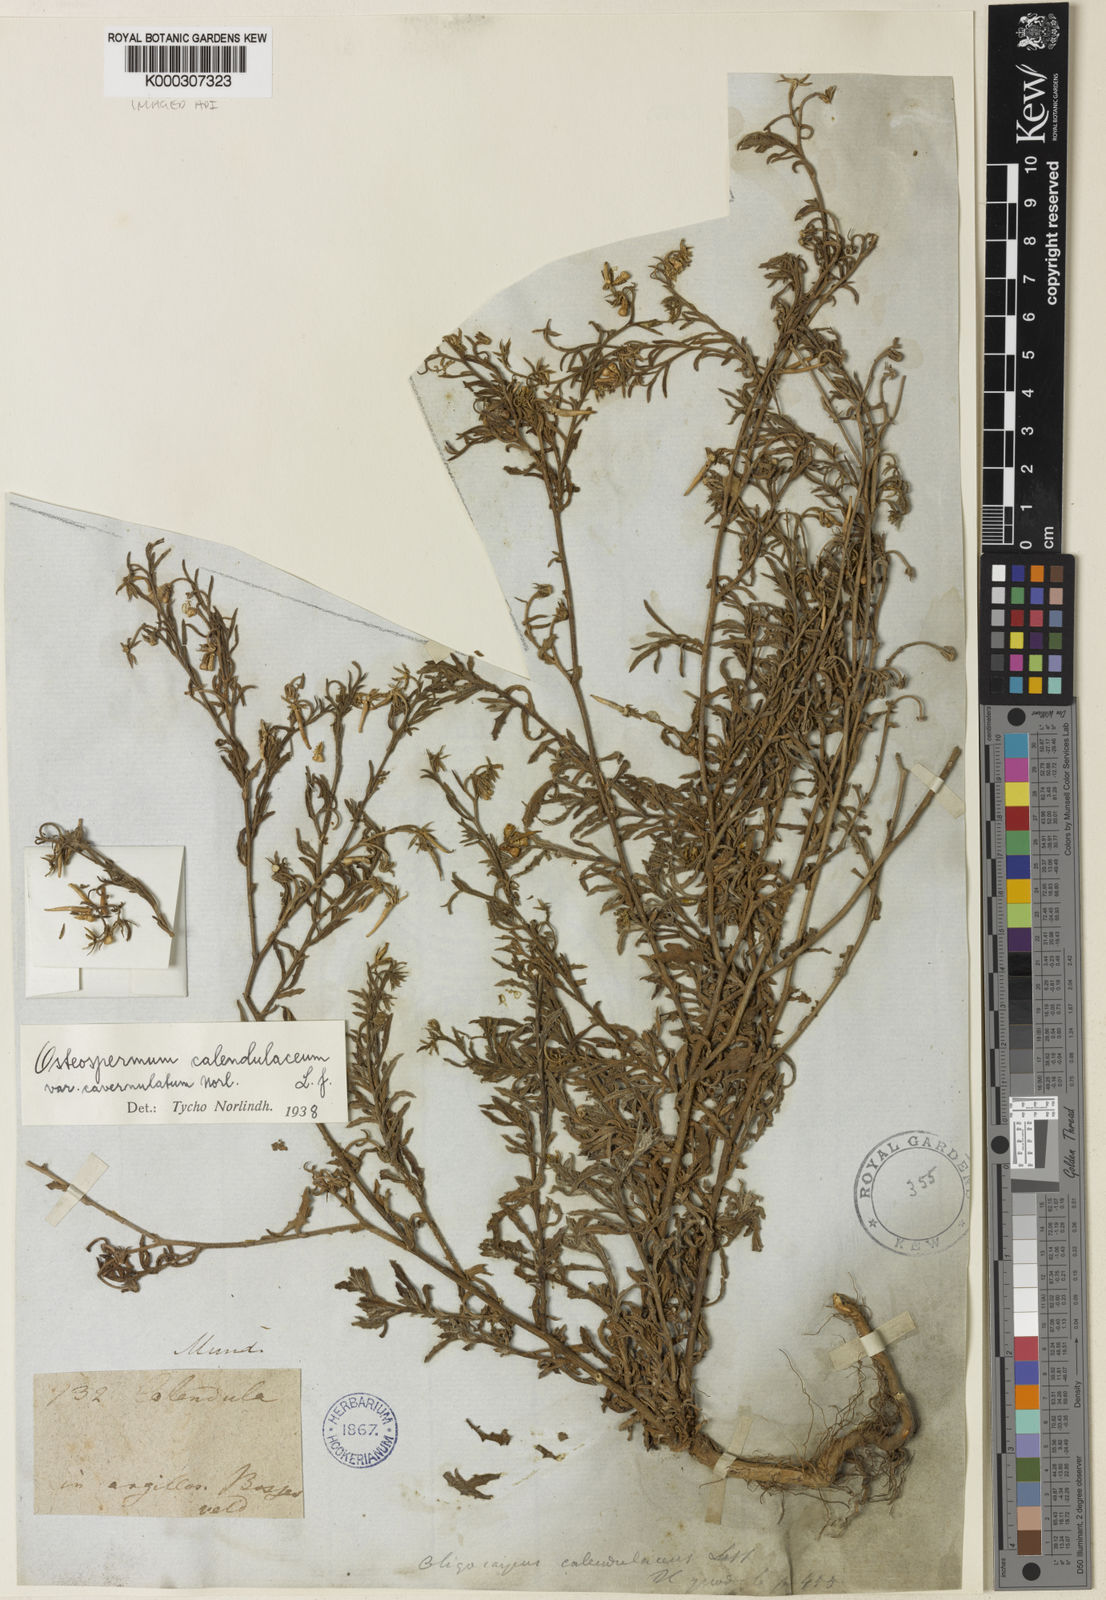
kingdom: Plantae
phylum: Tracheophyta
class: Magnoliopsida
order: Asterales
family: Asteraceae
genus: Osteospermum
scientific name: Osteospermum calendulaceum
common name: Stinking roger
